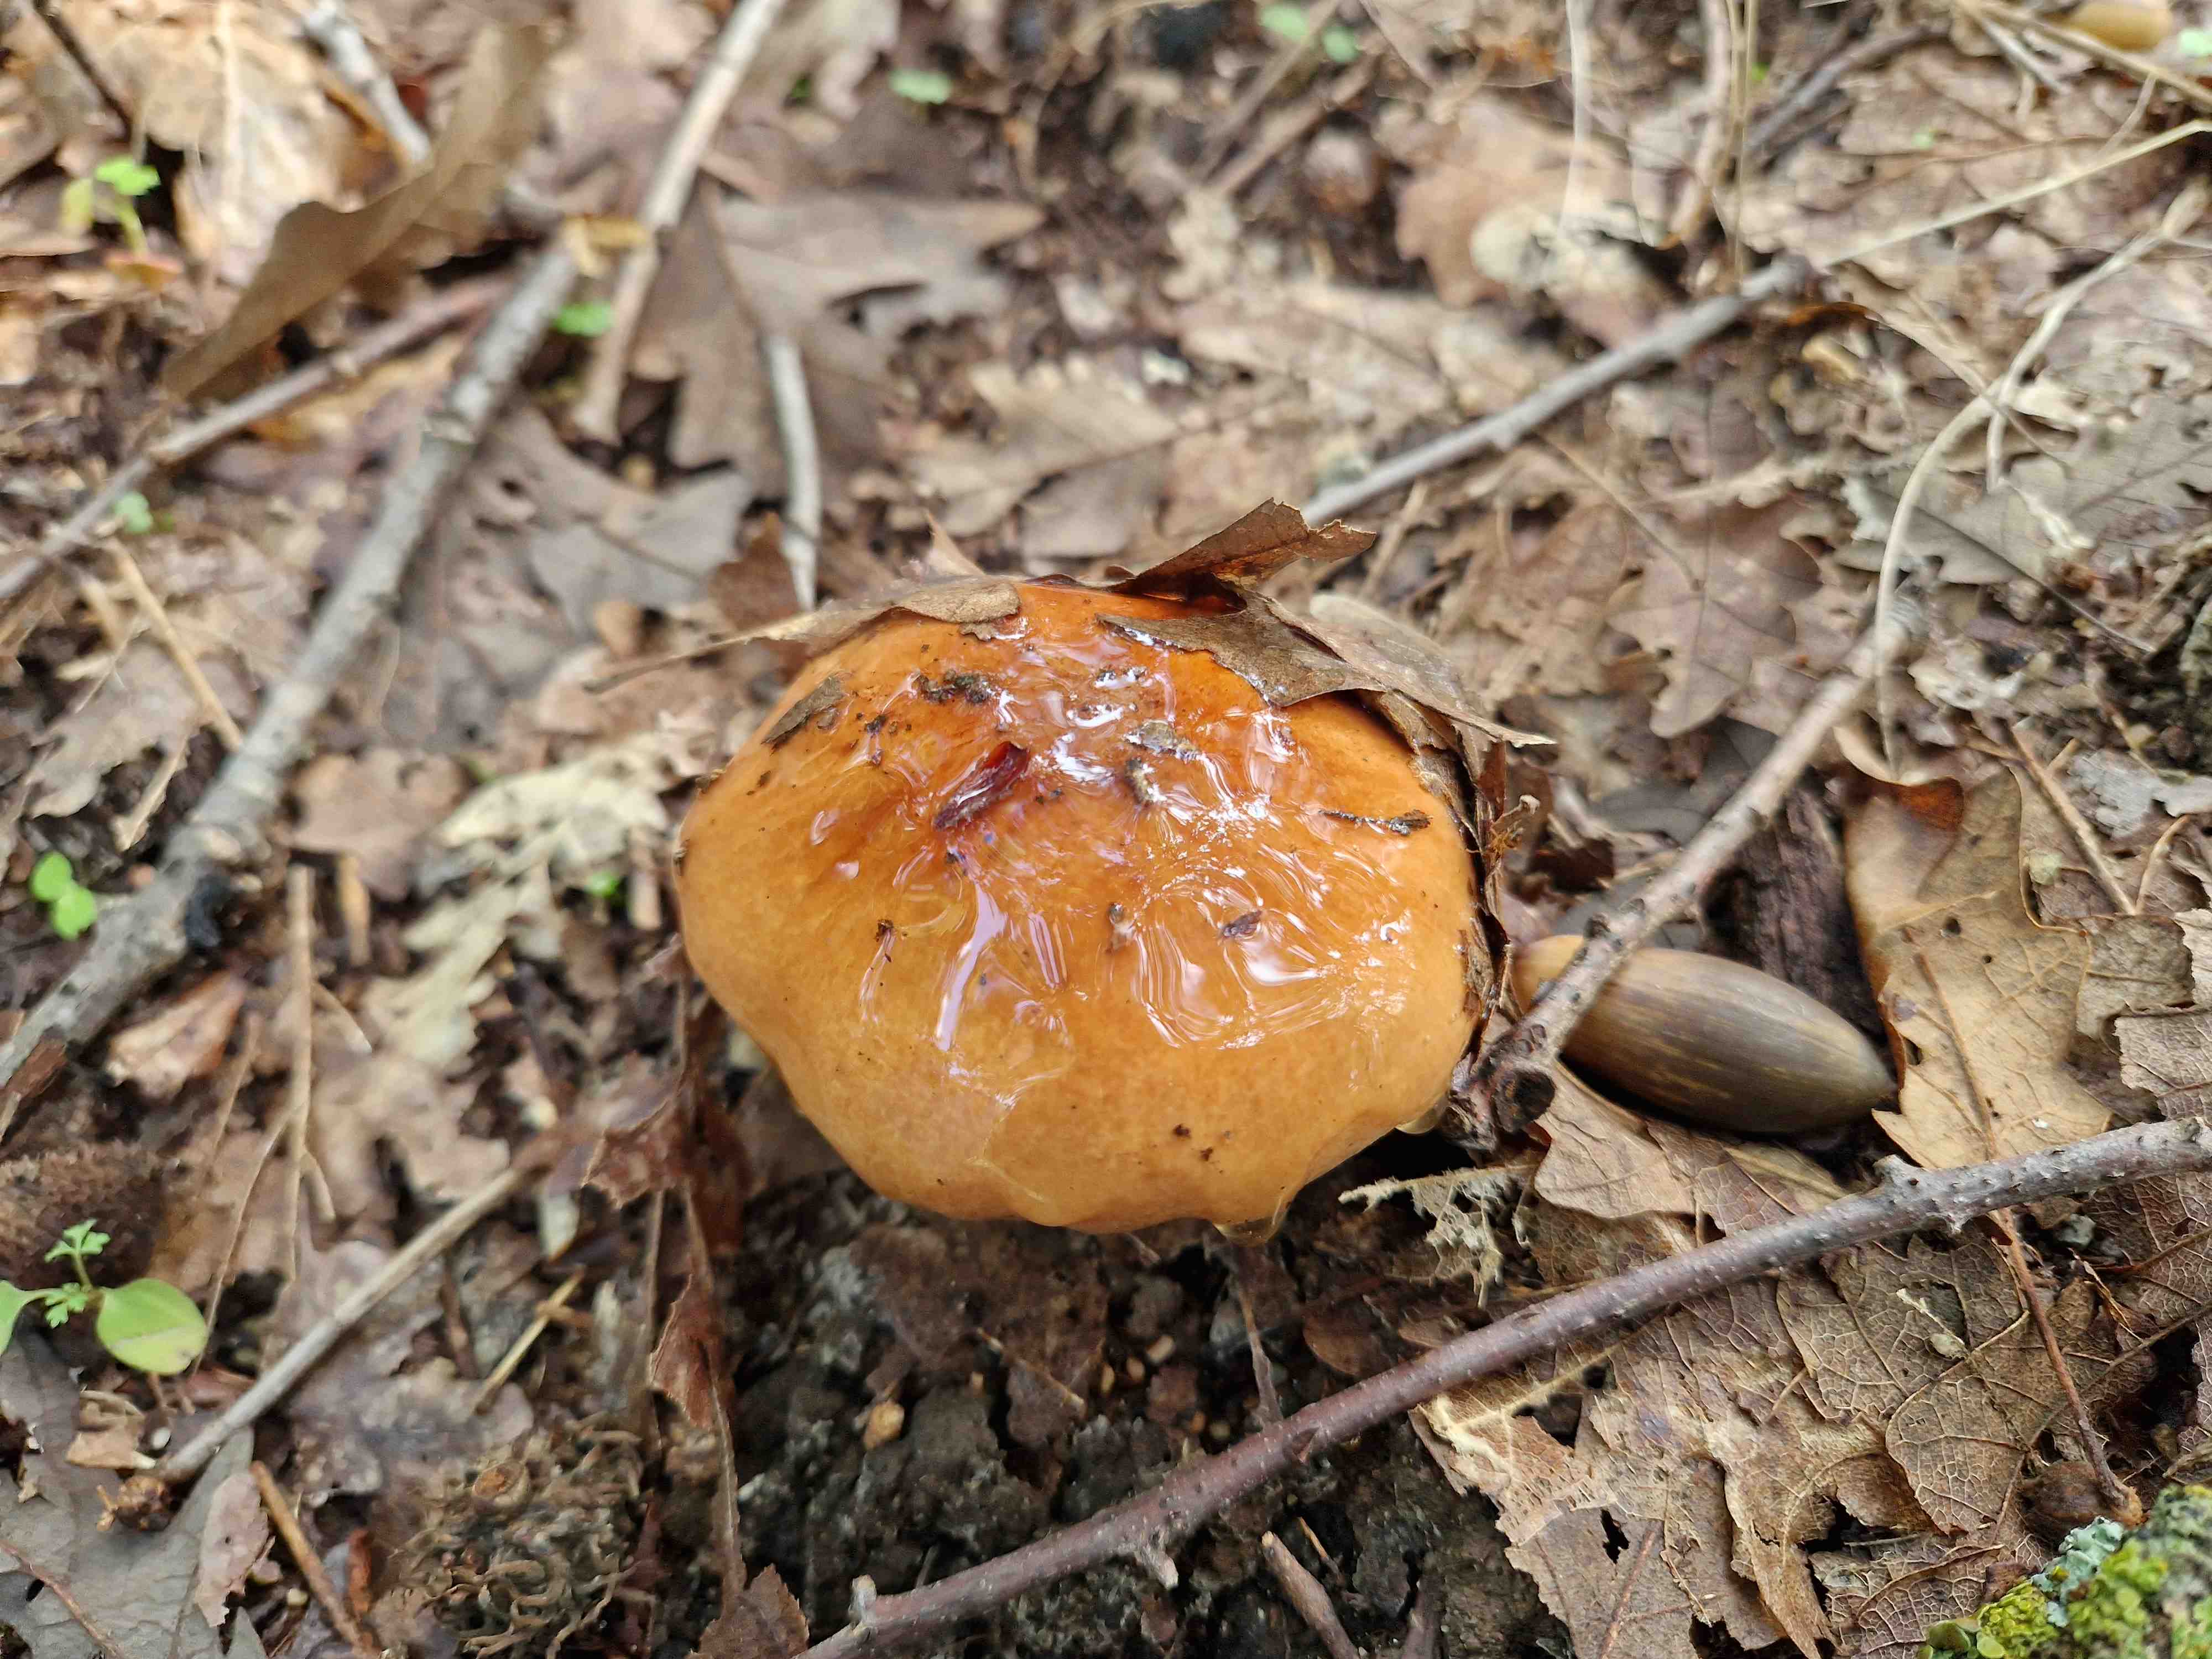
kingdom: Fungi
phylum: Basidiomycota
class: Agaricomycetes
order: Agaricales
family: Tricholomataceae
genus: Tricholoma
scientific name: Tricholoma ustaloides
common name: knippe-ridderhat
